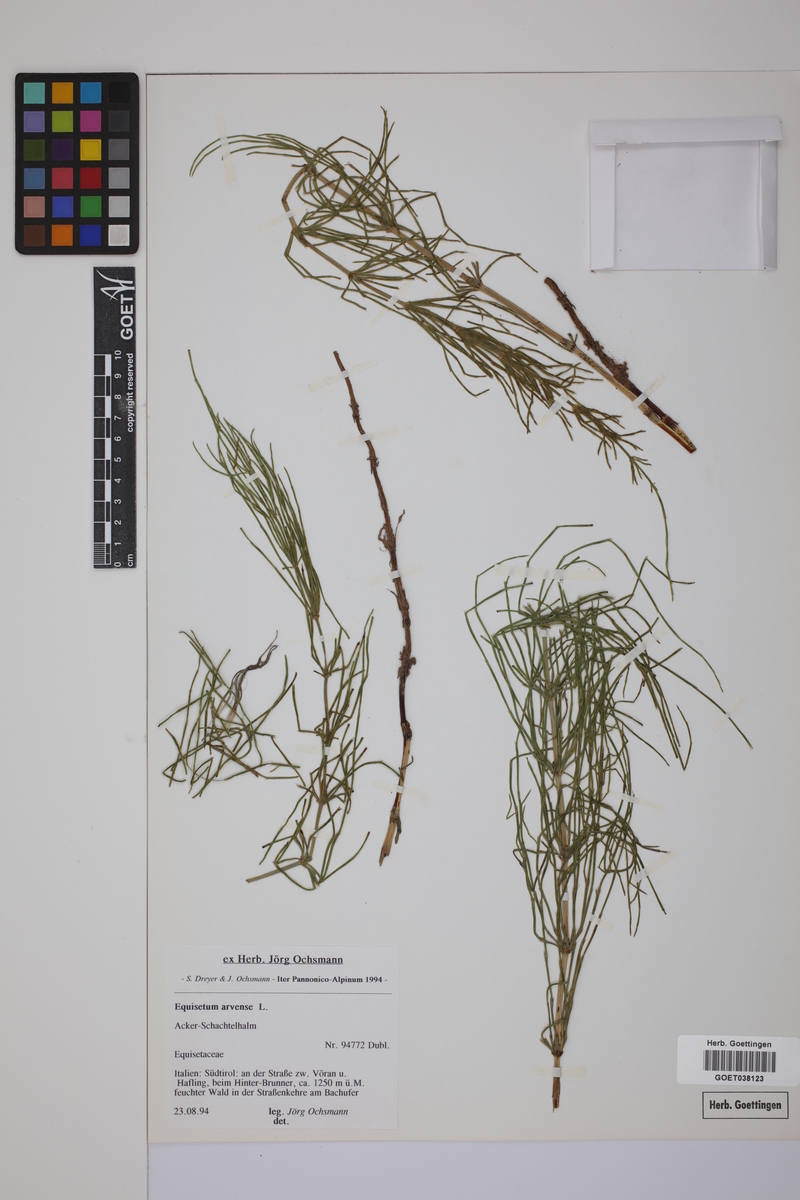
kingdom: Plantae
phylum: Tracheophyta
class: Polypodiopsida
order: Equisetales
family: Equisetaceae
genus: Equisetum
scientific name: Equisetum arvense
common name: Field horsetail
